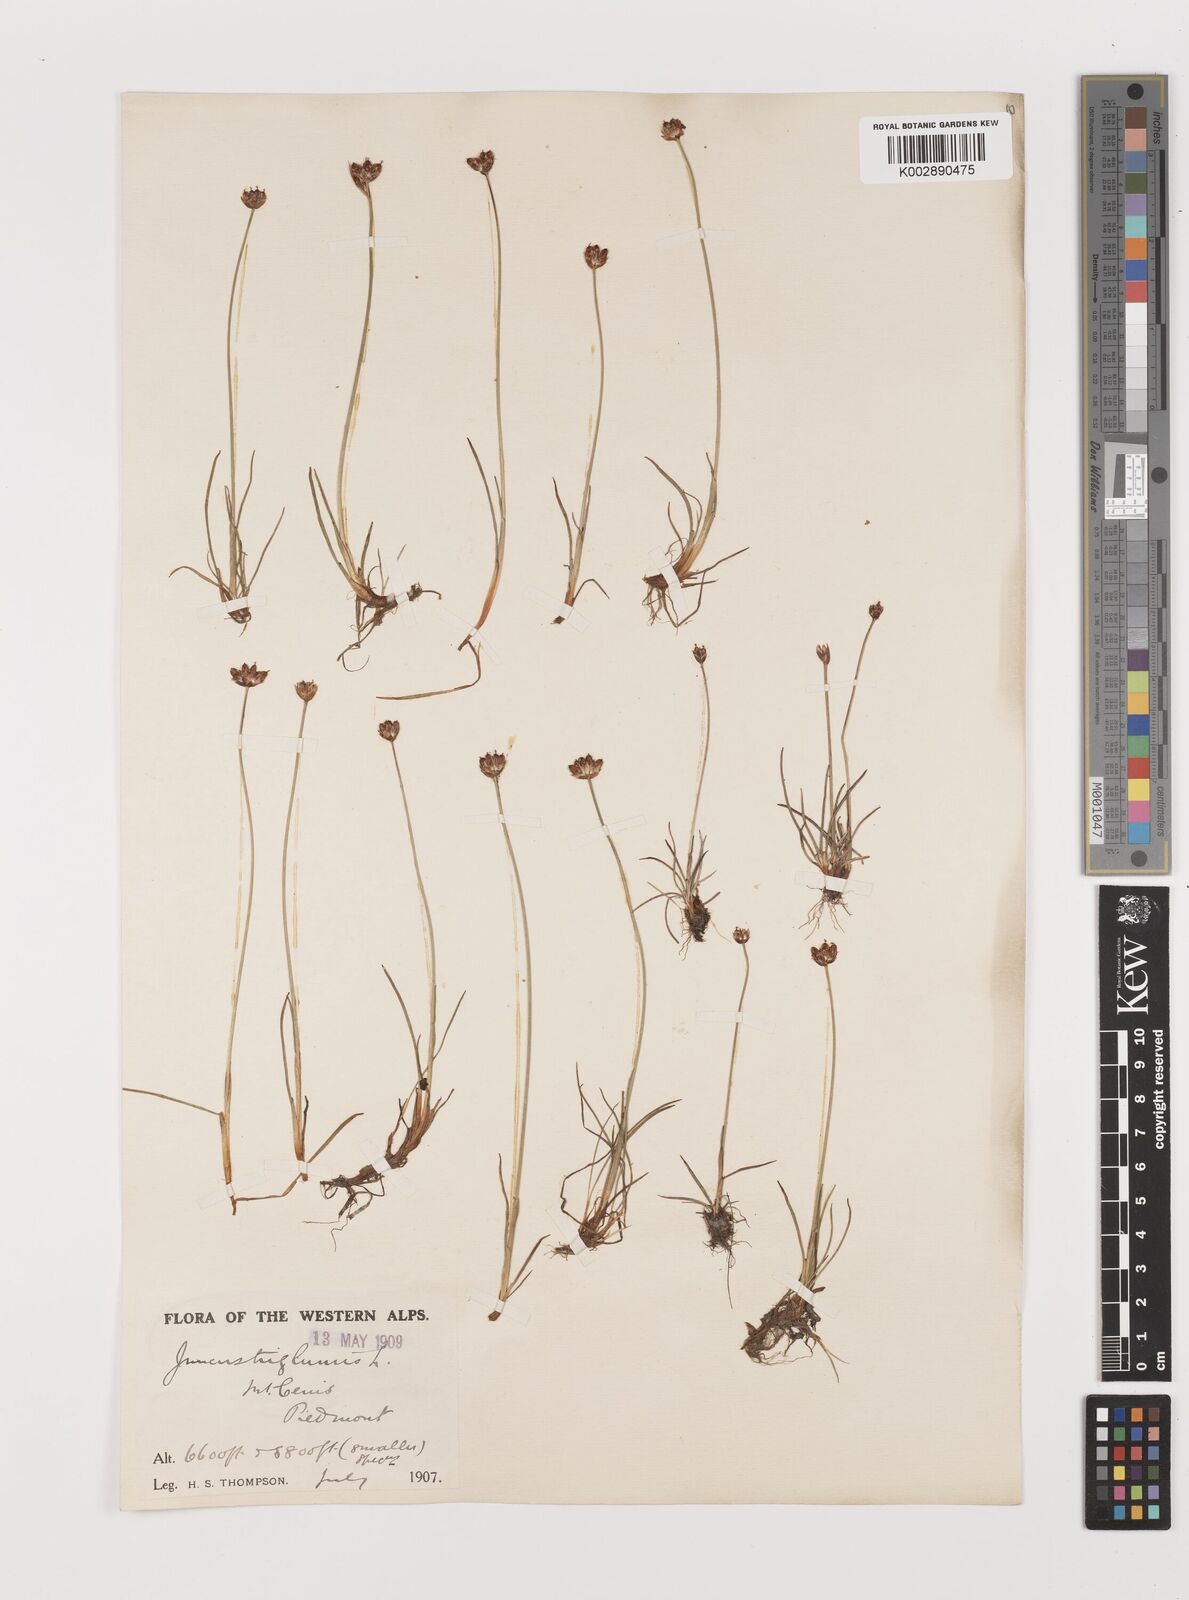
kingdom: Plantae
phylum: Tracheophyta
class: Liliopsida
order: Poales
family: Juncaceae
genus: Juncus
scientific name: Juncus triglumis
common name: Three-flowered rush
